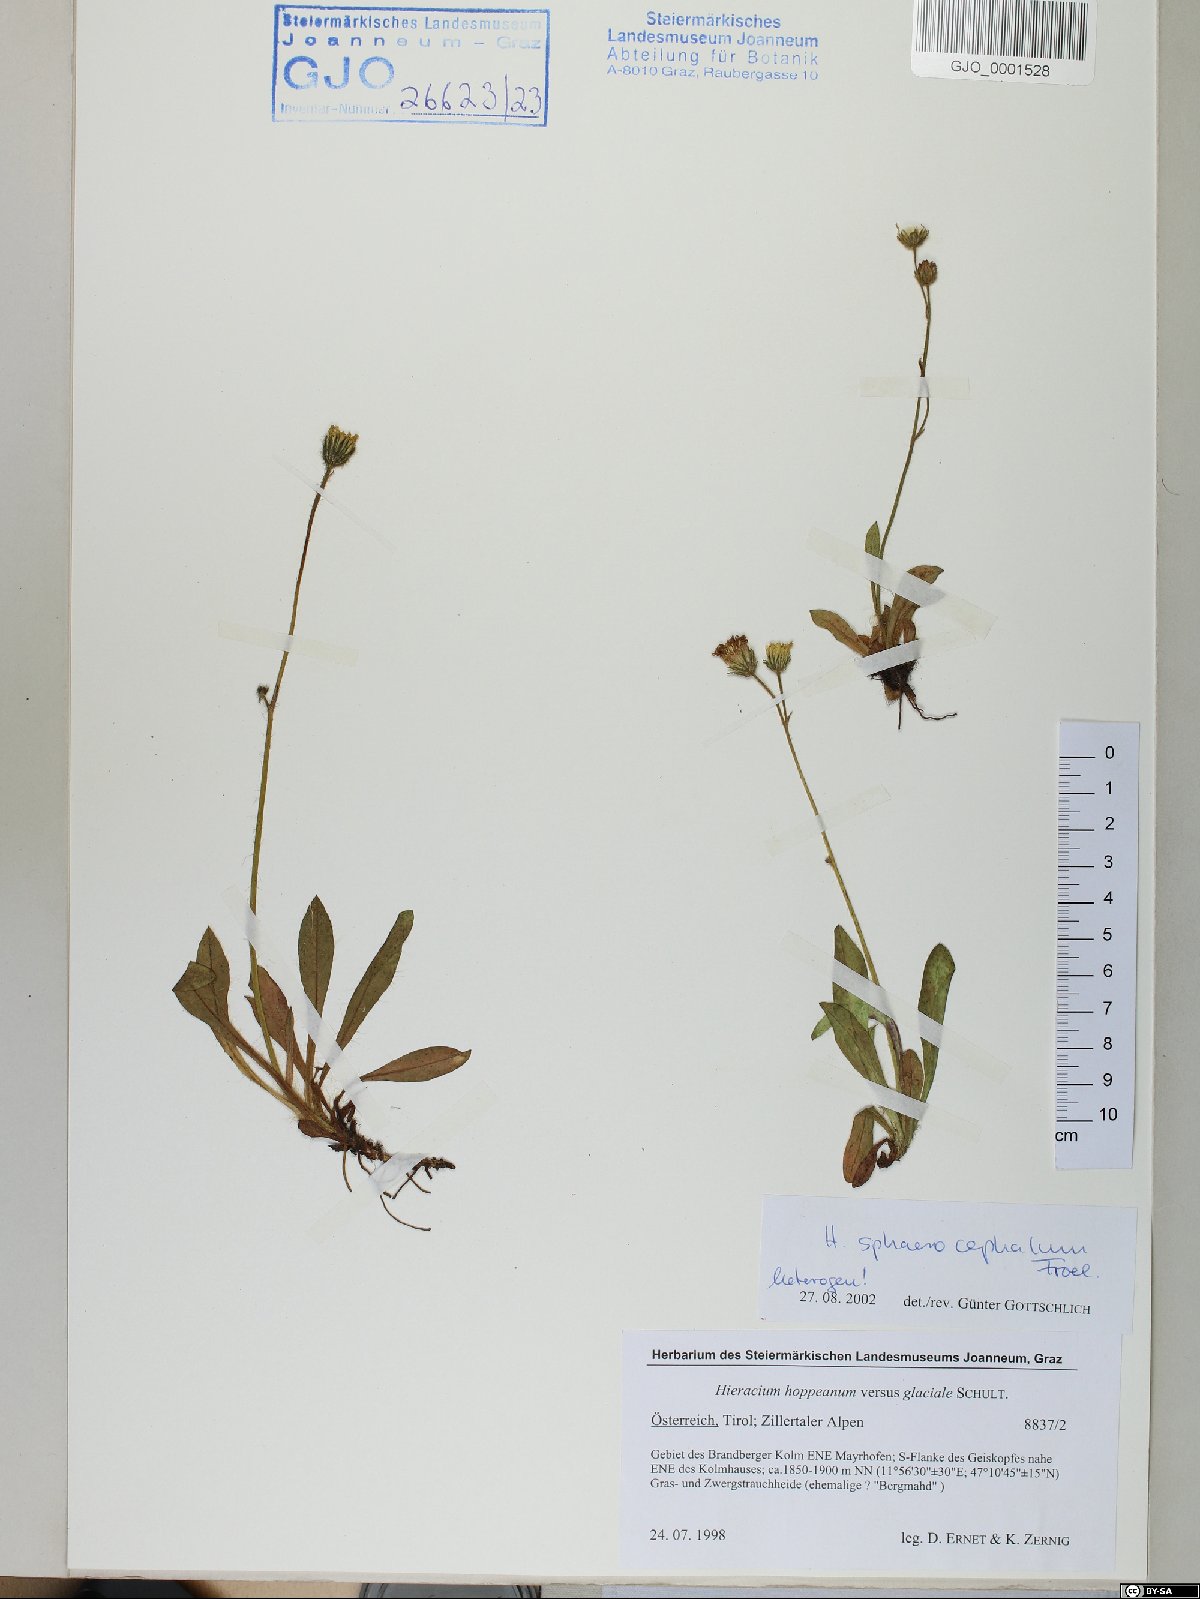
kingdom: Plantae
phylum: Tracheophyta
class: Magnoliopsida
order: Asterales
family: Asteraceae
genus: Pilosella
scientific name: Pilosella sphaerocephala
